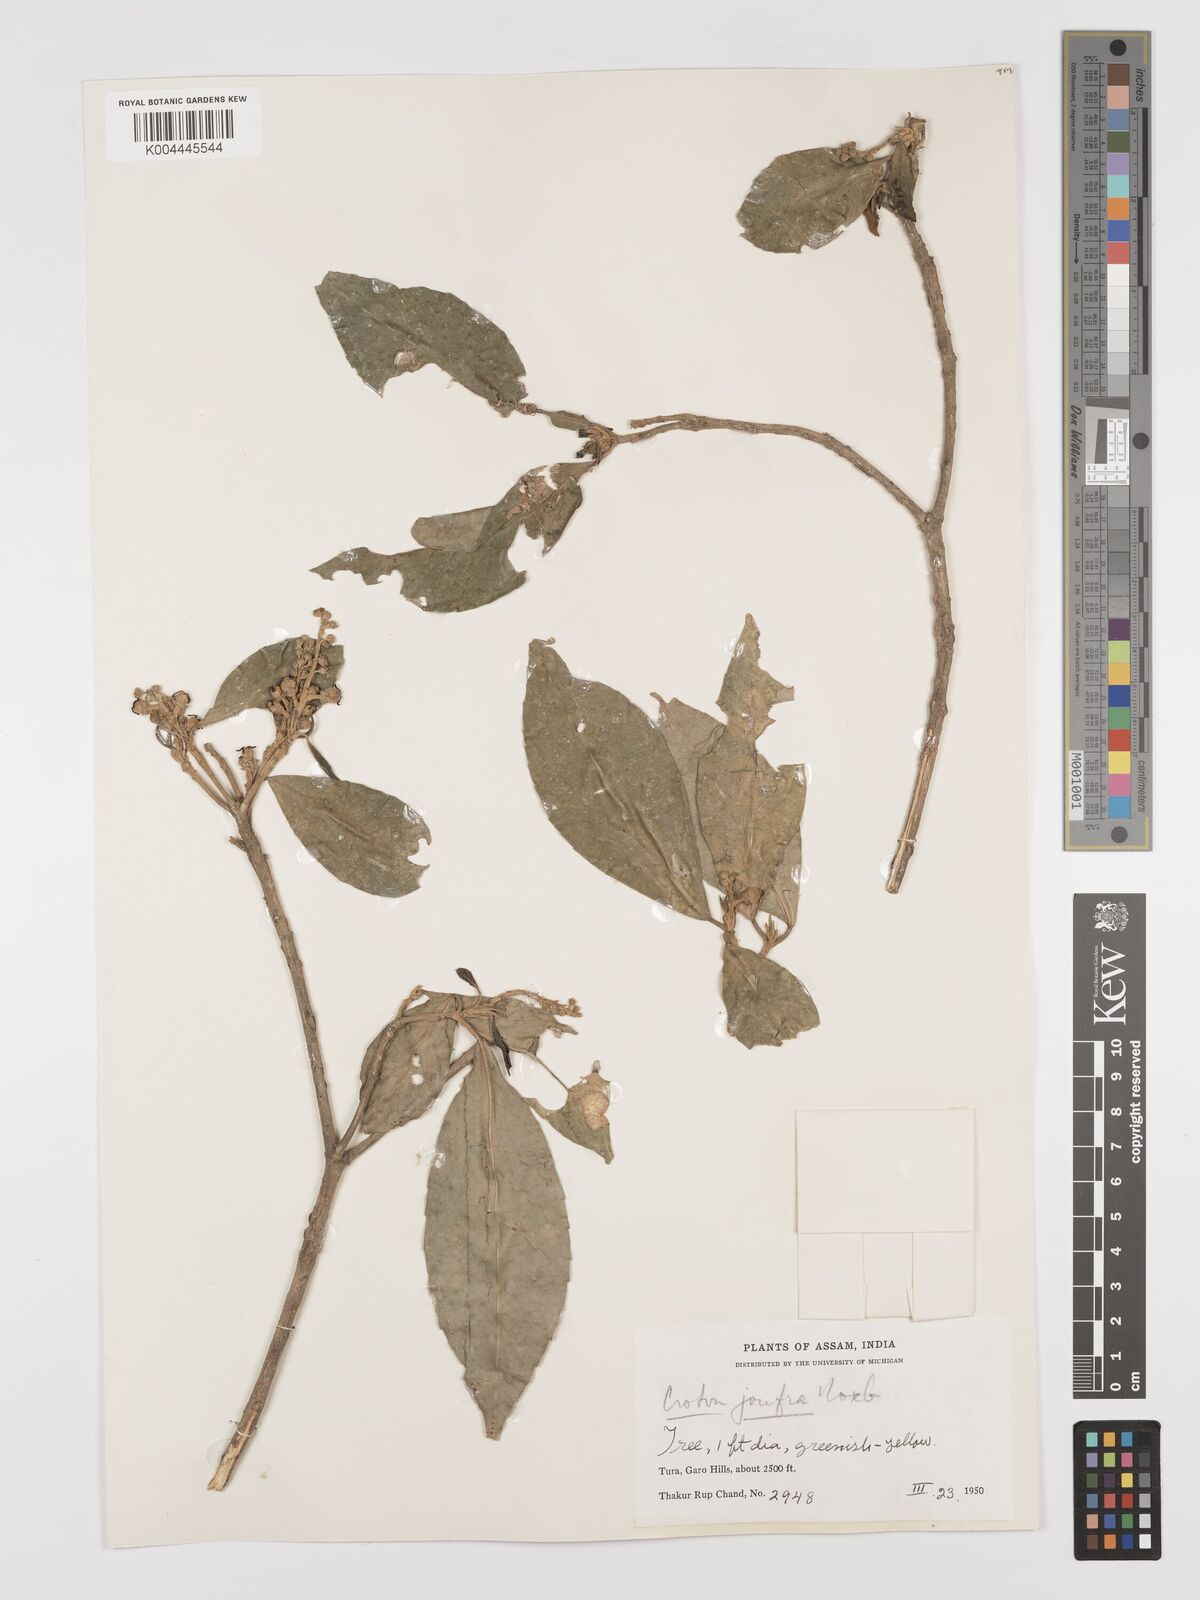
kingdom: Plantae
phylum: Tracheophyta
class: Magnoliopsida
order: Malpighiales
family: Euphorbiaceae
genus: Croton
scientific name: Croton joufra
